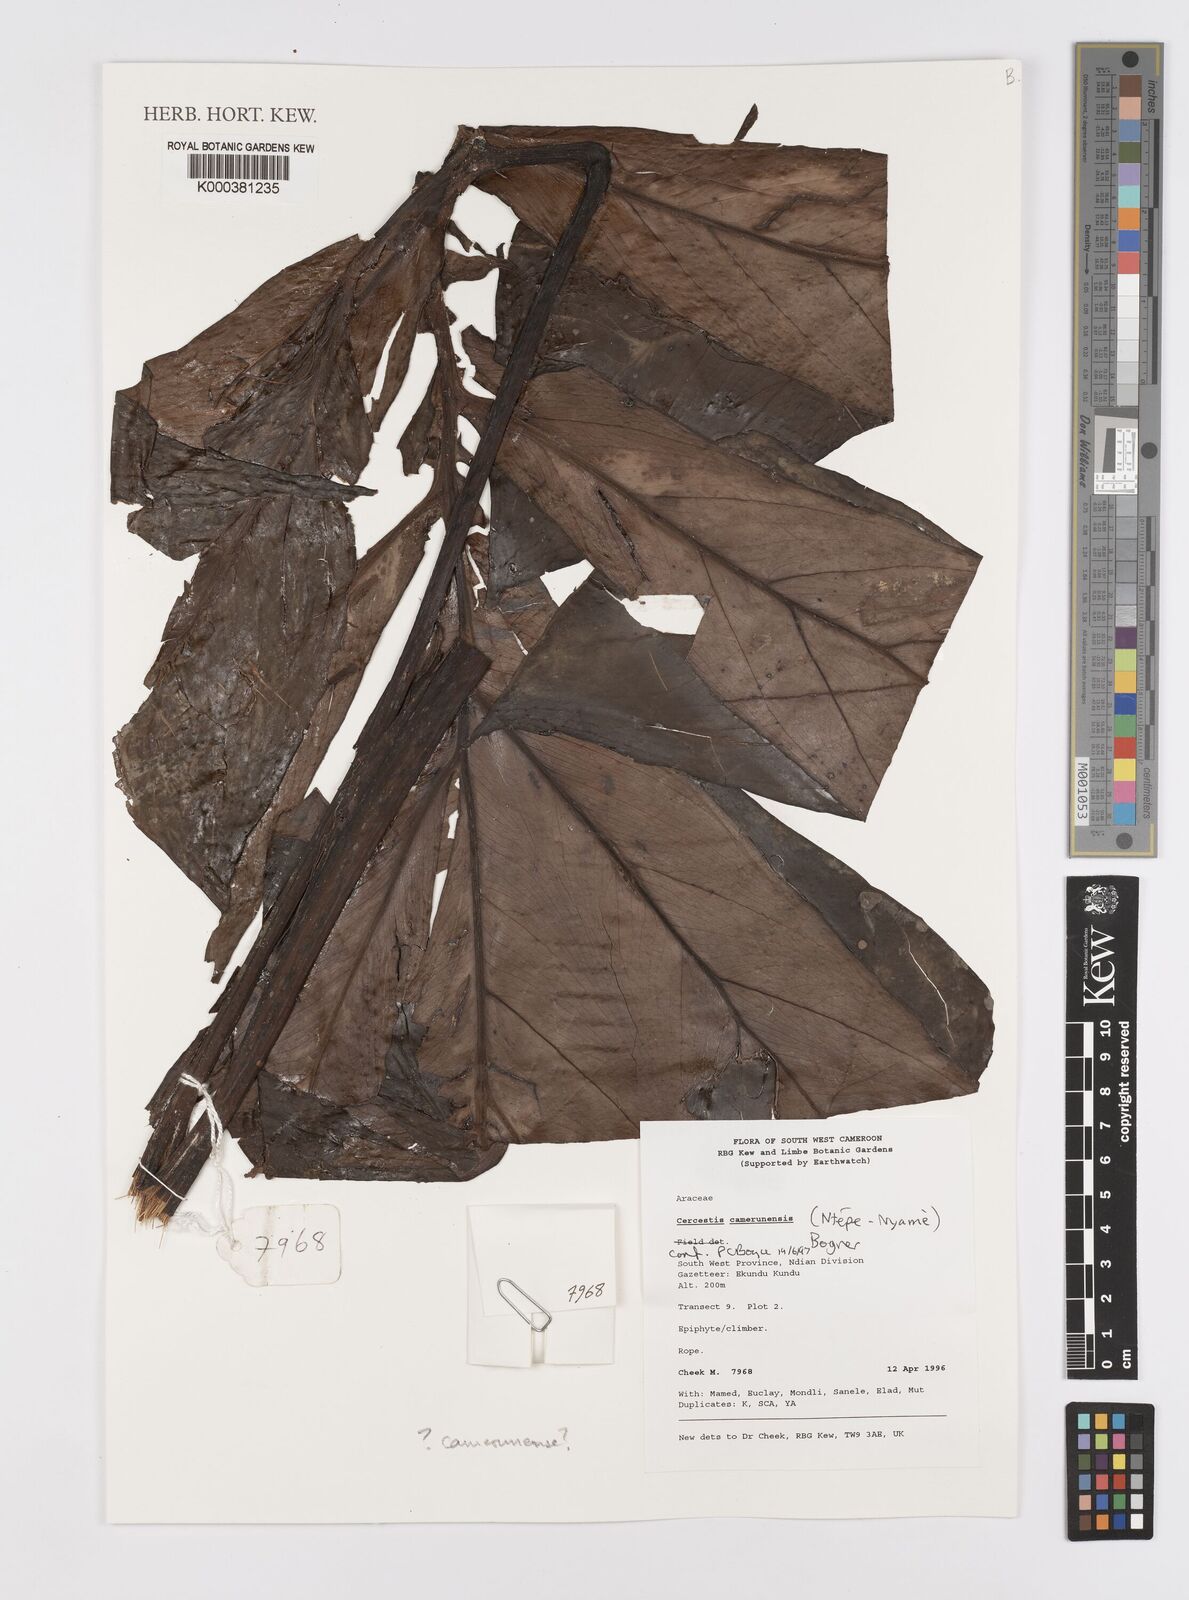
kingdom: Plantae
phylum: Tracheophyta
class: Liliopsida
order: Alismatales
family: Araceae
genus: Cercestis
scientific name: Cercestis camerunensis
